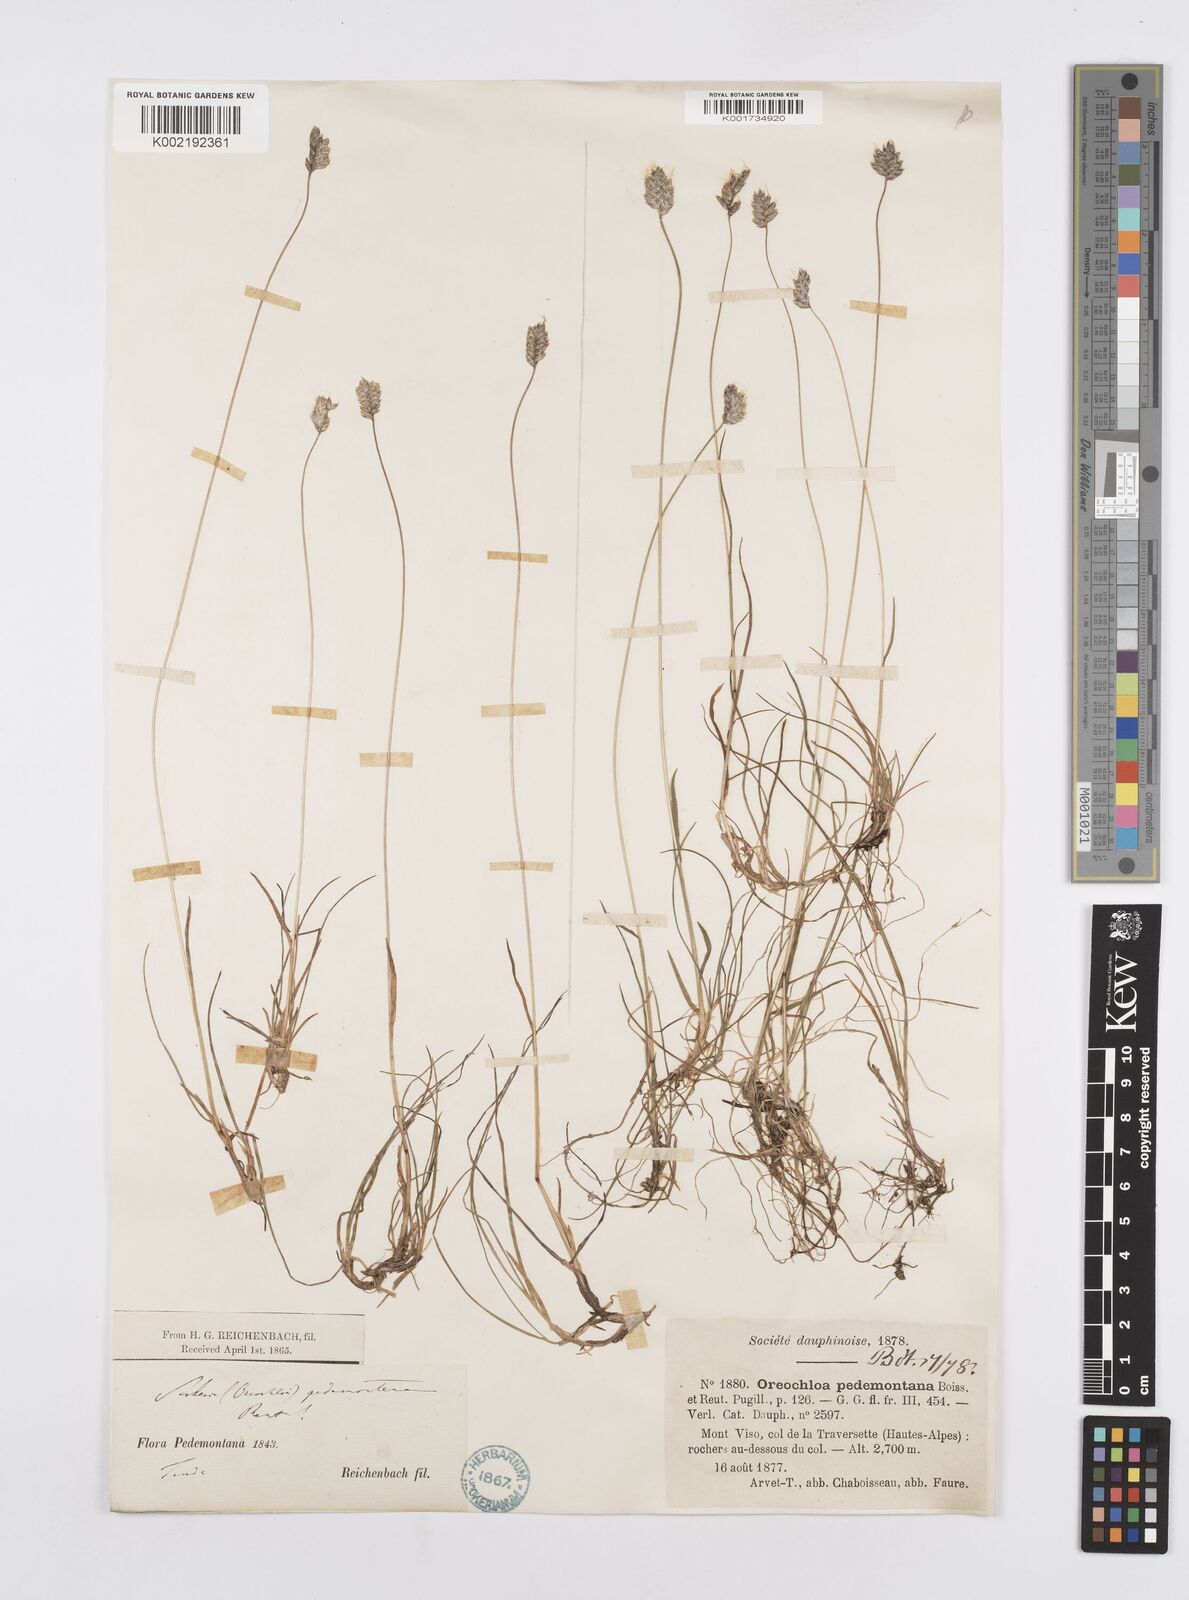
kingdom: Plantae
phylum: Tracheophyta
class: Liliopsida
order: Poales
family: Poaceae
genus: Oreochloa
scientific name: Oreochloa seslerioides
